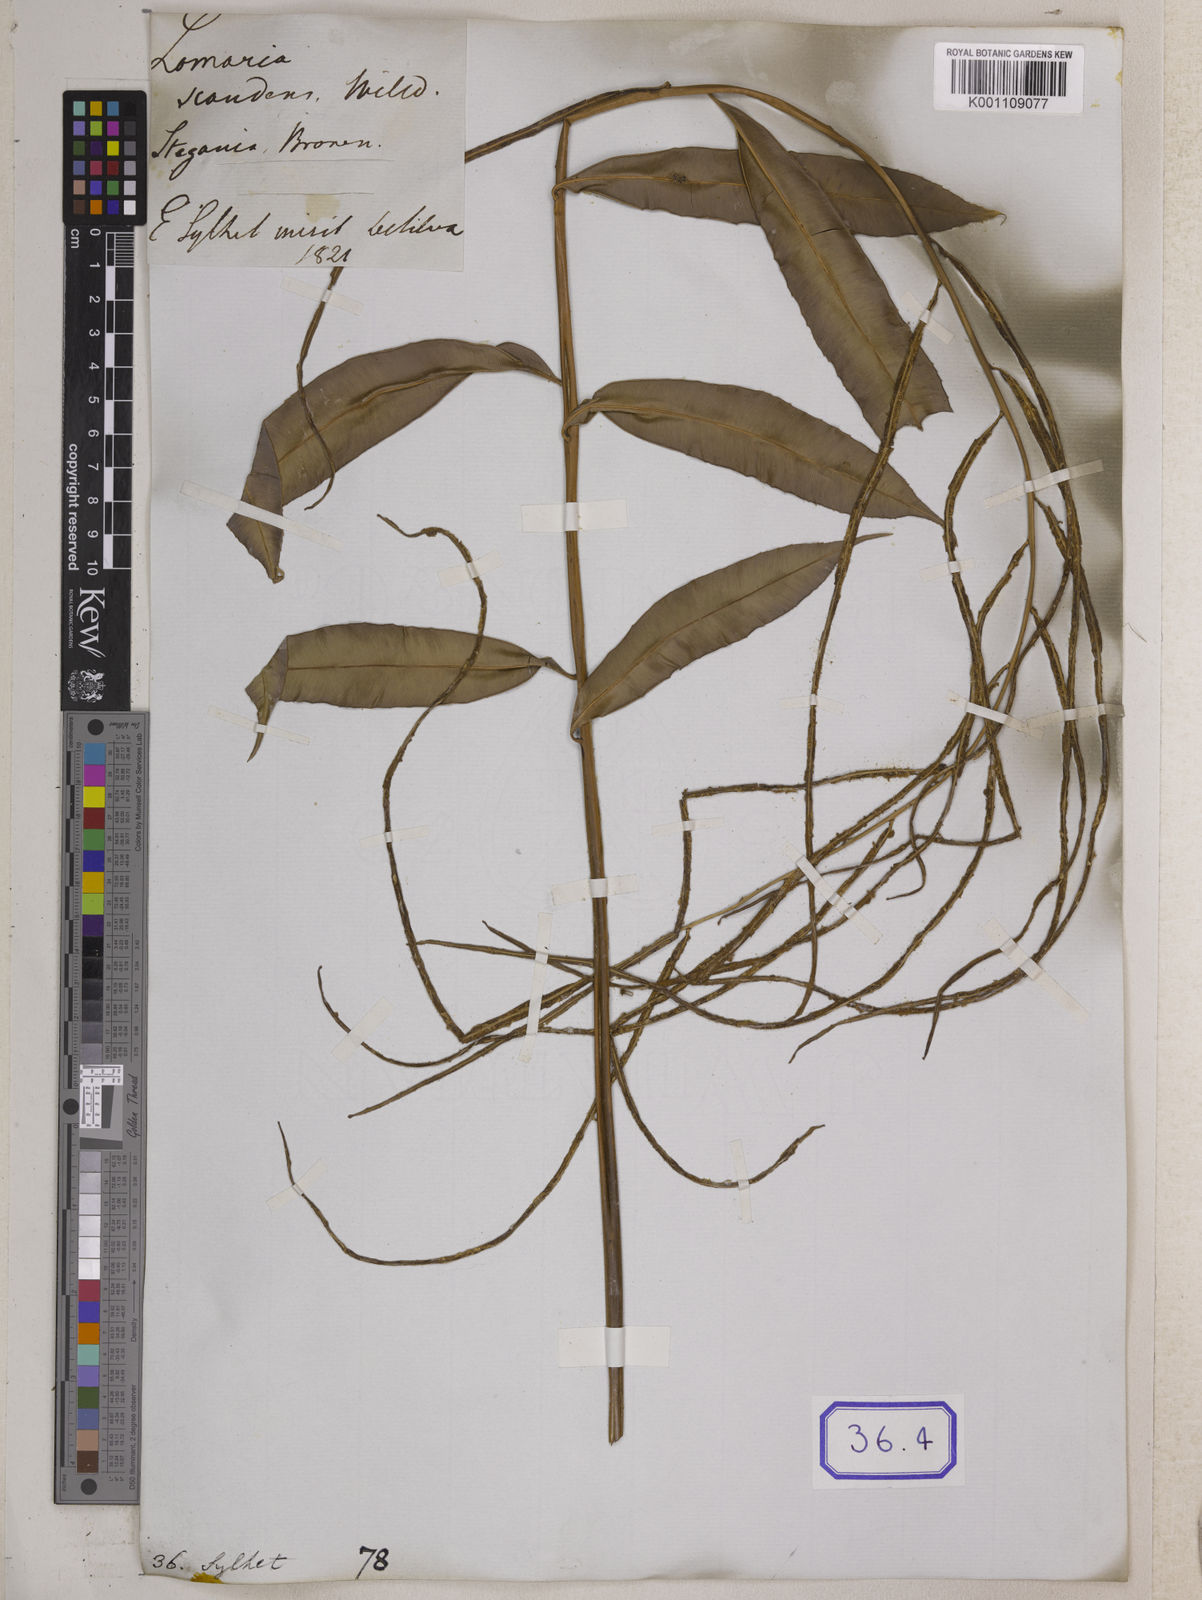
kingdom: Plantae
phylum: Tracheophyta
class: Polypodiopsida
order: Polypodiales
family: Blechnaceae
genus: Stenochlaena
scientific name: Stenochlaena palustris
